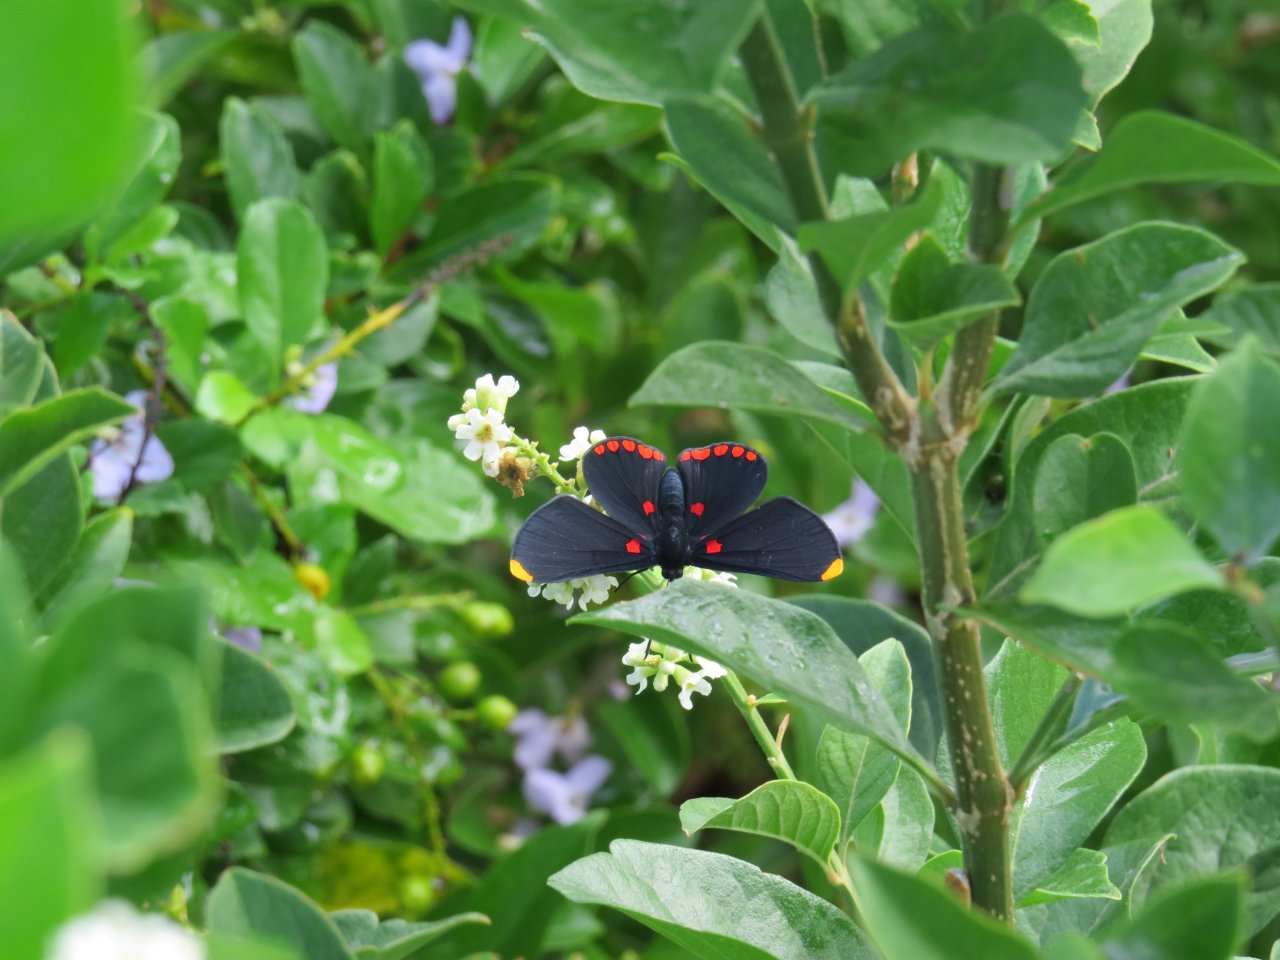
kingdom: Animalia
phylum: Arthropoda
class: Insecta
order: Lepidoptera
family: Lycaenidae
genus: Melanis
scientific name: Melanis pixe
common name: Red-bordered Pixie
